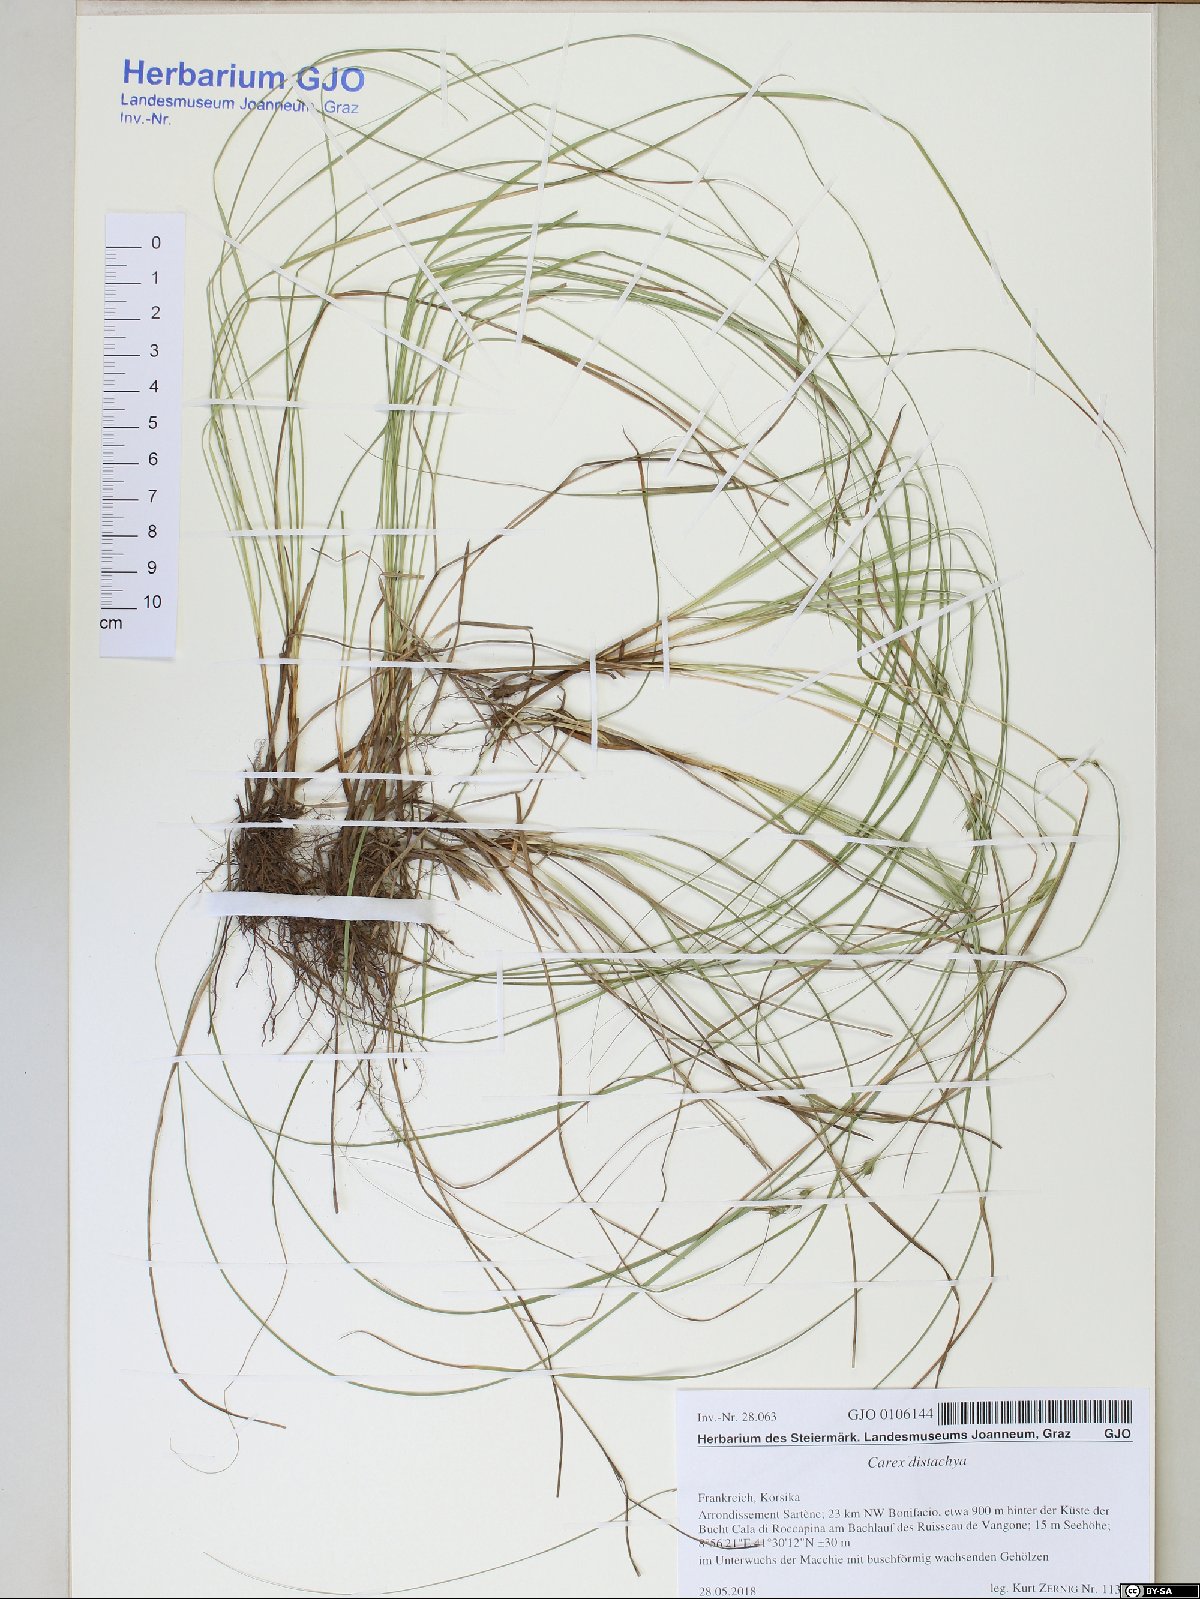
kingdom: Plantae
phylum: Tracheophyta
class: Liliopsida
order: Poales
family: Cyperaceae
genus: Carex
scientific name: Carex distachya
